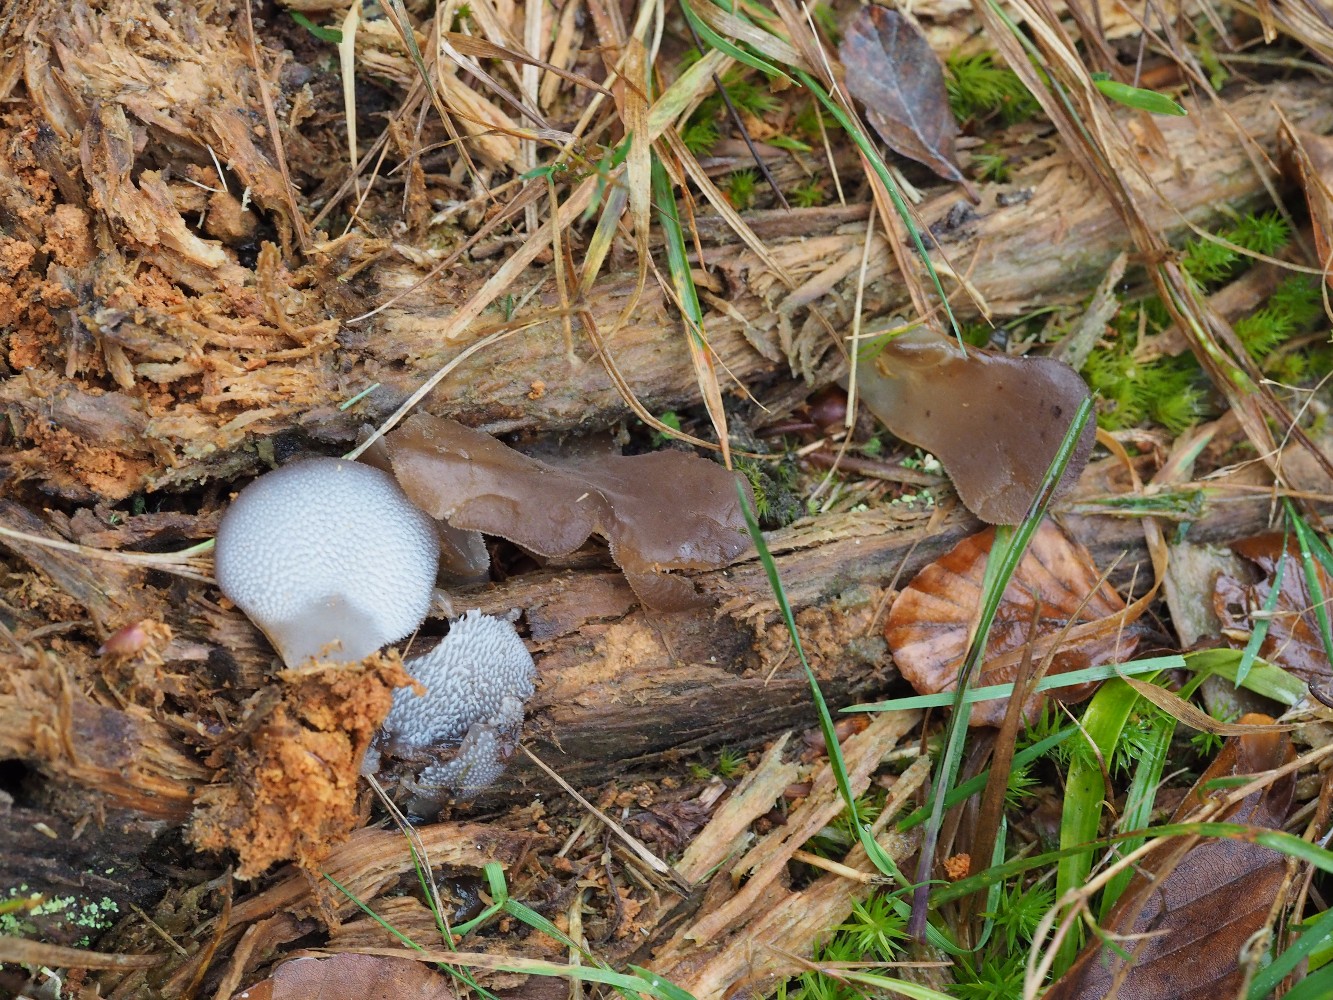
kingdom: Fungi
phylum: Basidiomycota
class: Agaricomycetes
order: Auriculariales
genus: Pseudohydnum
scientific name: Pseudohydnum gelatinosum
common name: bævretand
